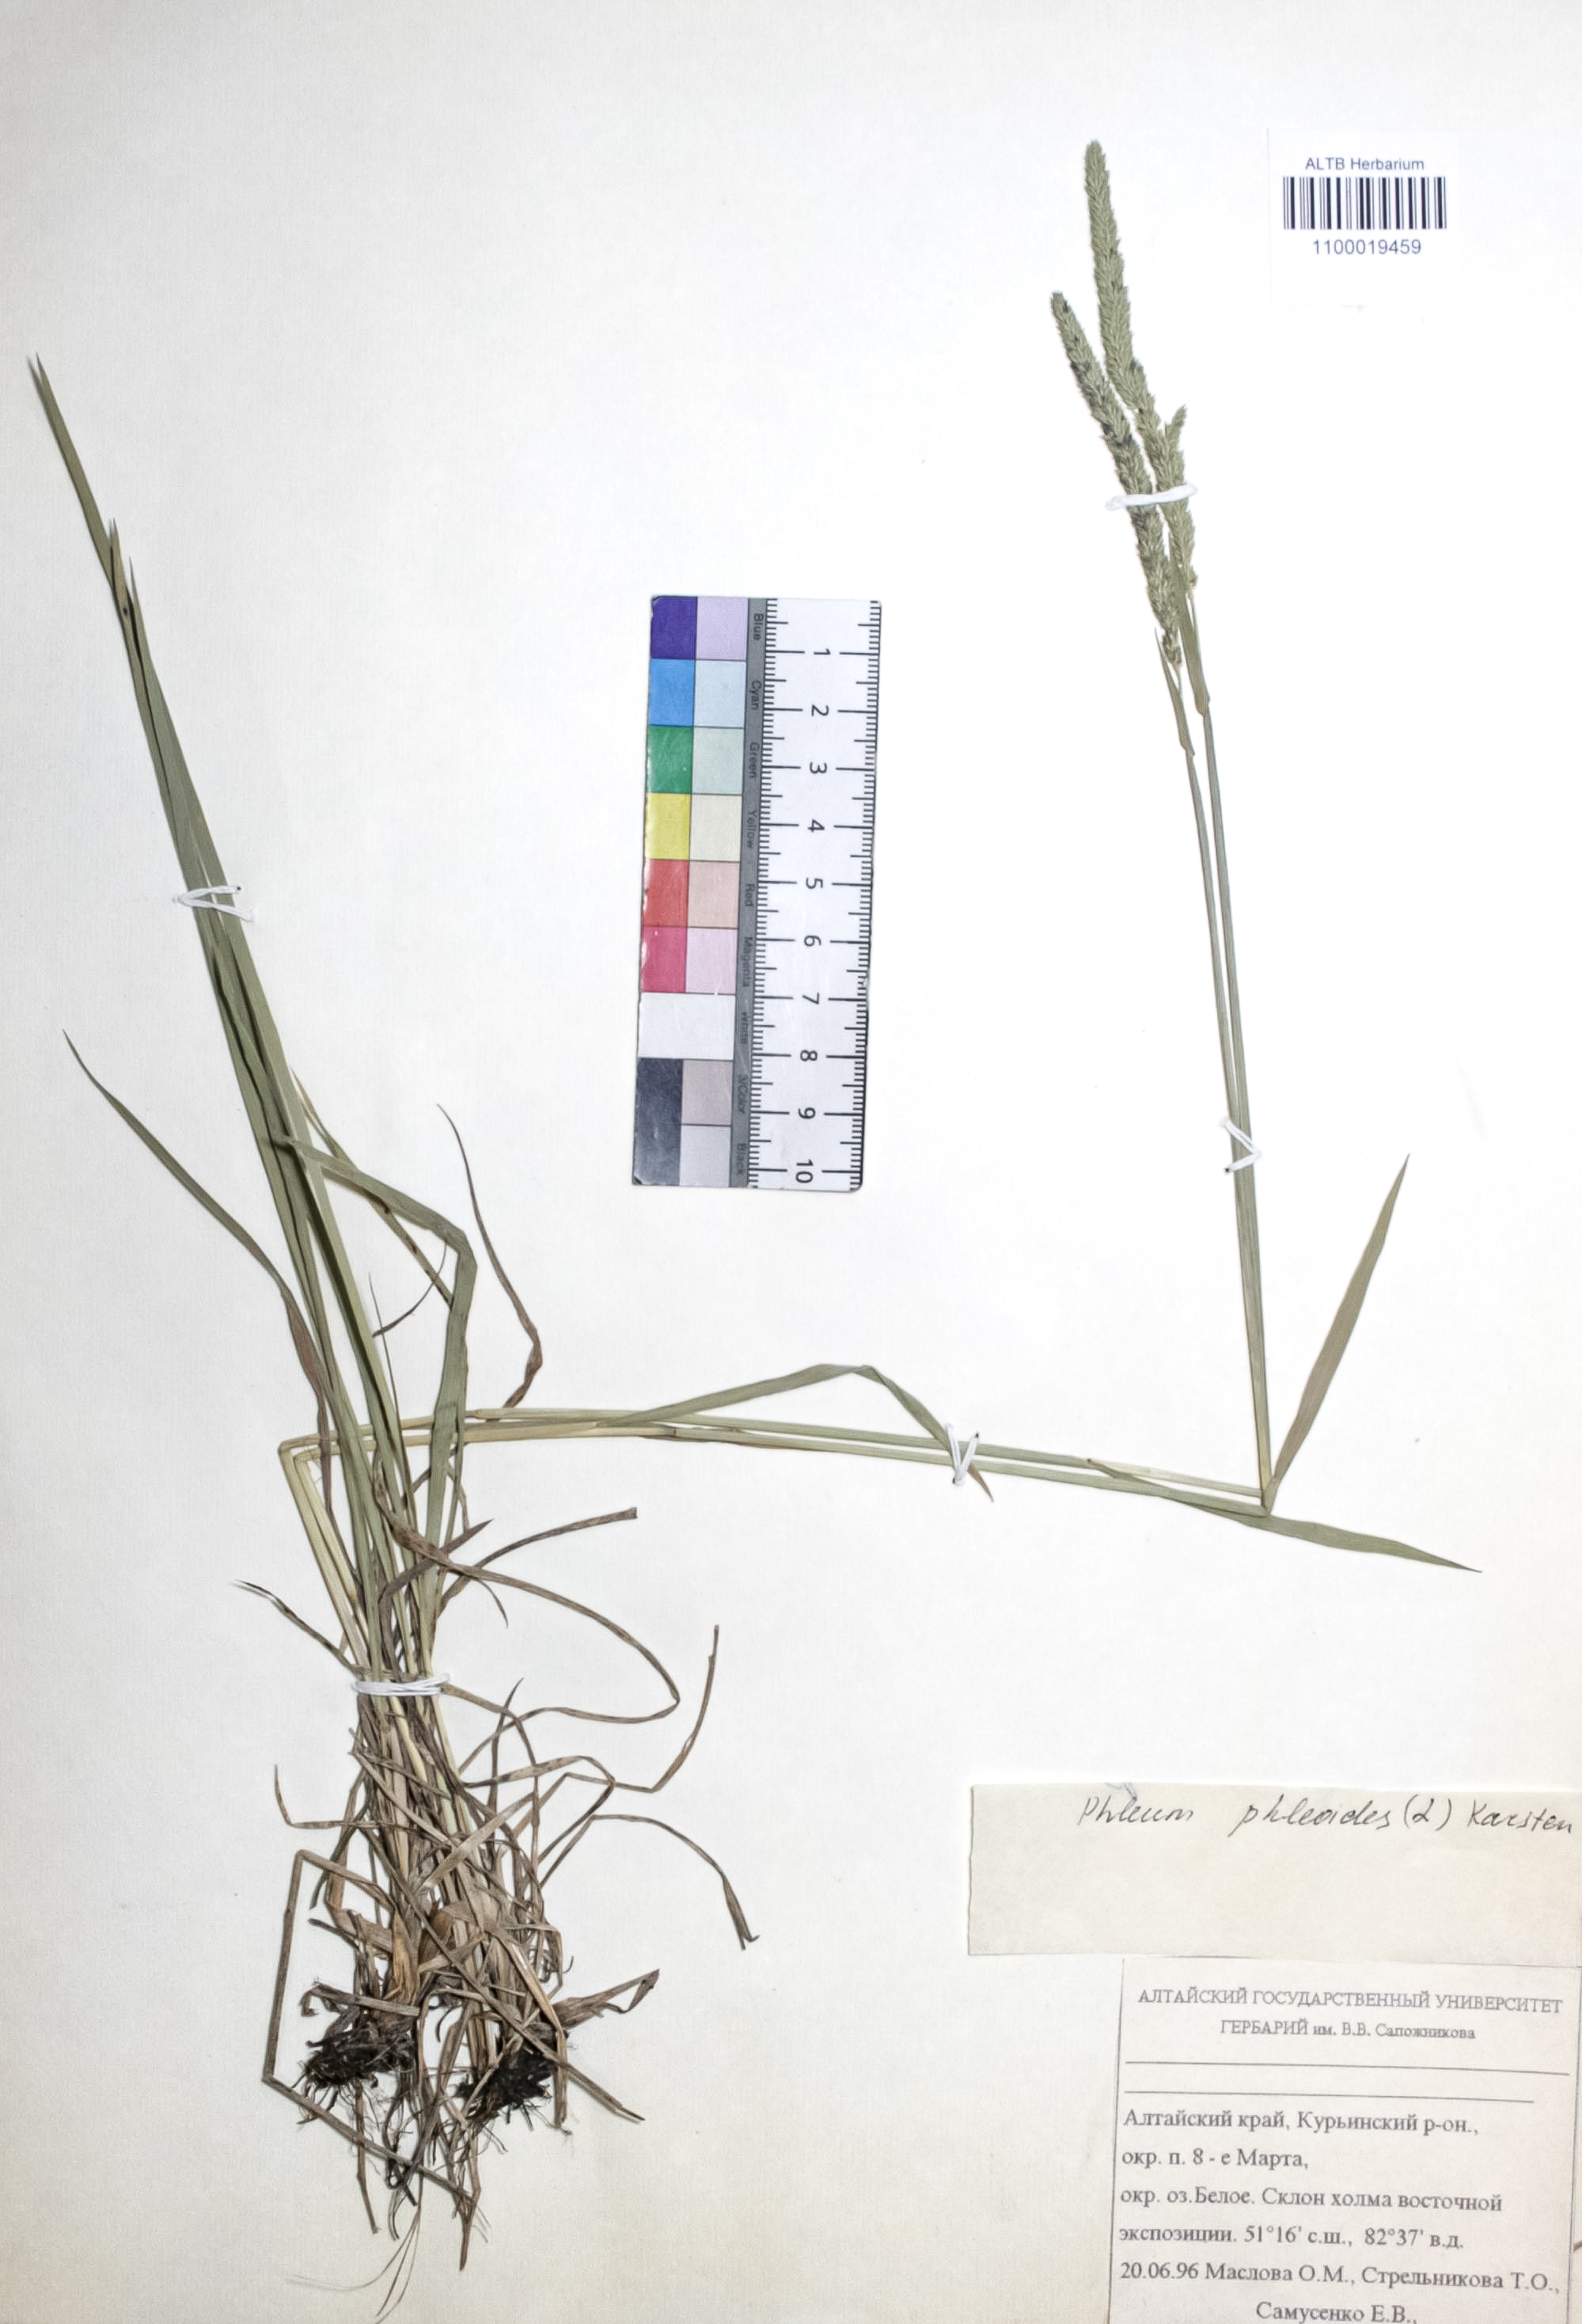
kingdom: Plantae
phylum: Tracheophyta
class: Liliopsida
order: Poales
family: Poaceae
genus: Phleum
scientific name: Phleum phleoides
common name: Purple-stem cat's-tail
